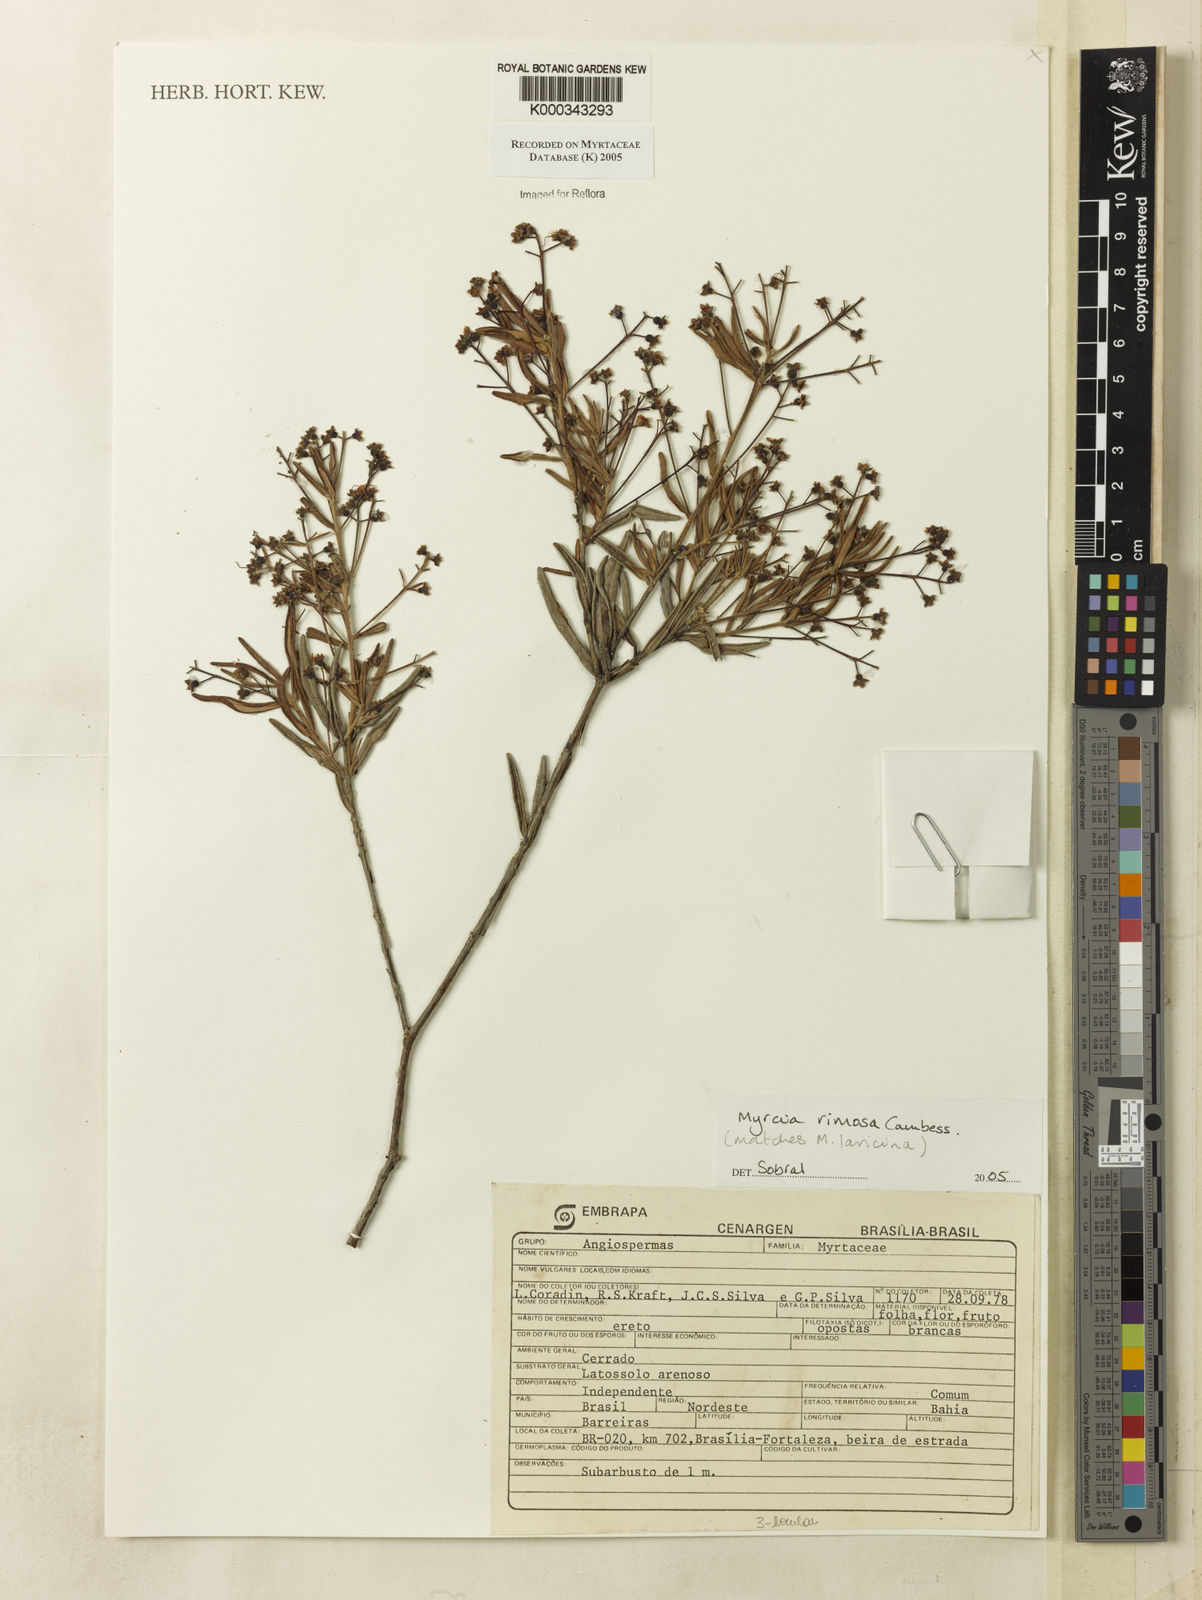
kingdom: Plantae
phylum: Tracheophyta
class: Magnoliopsida
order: Myrtales
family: Myrtaceae
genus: Myrcia
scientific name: Myrcia laricina
